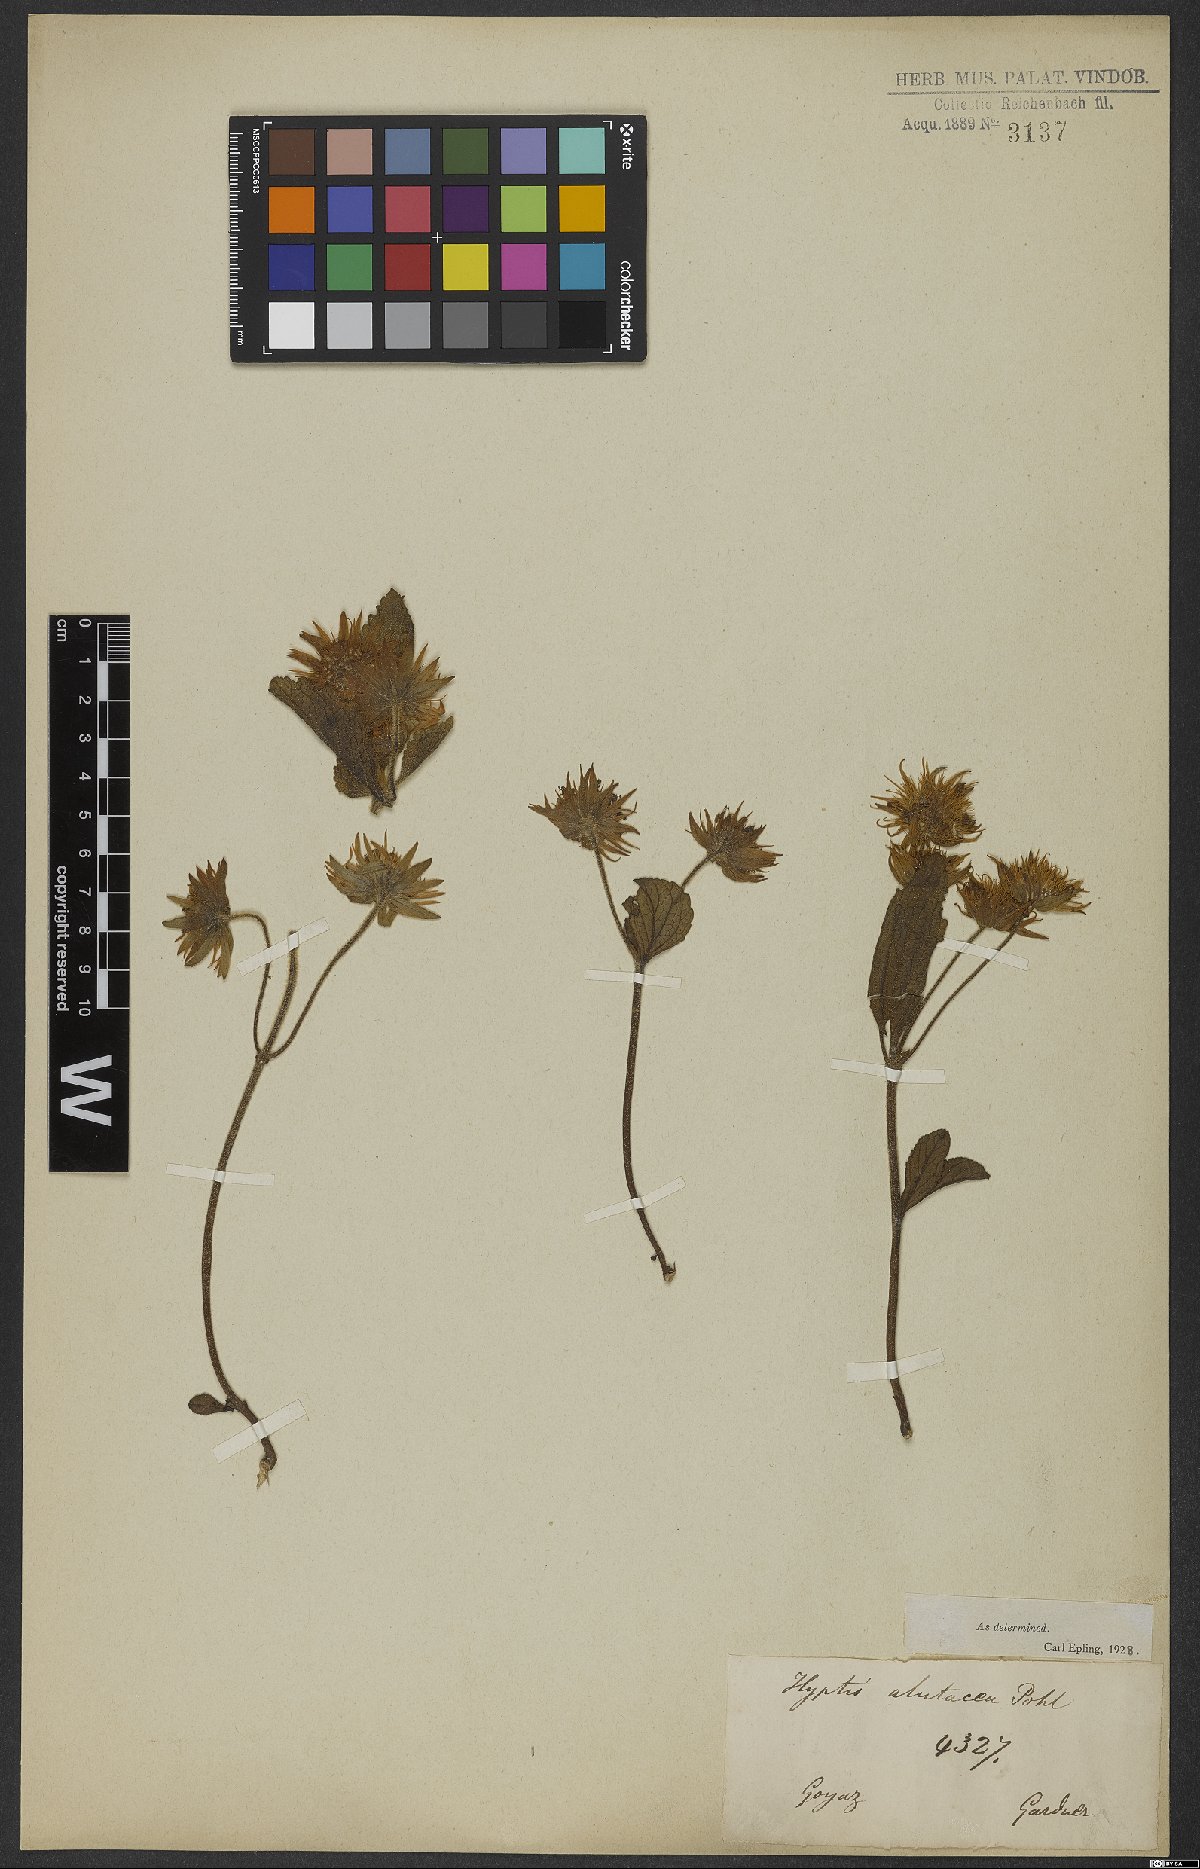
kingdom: Plantae
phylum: Tracheophyta
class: Magnoliopsida
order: Lamiales
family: Lamiaceae
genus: Hyptis
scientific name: Hyptis alutacea
